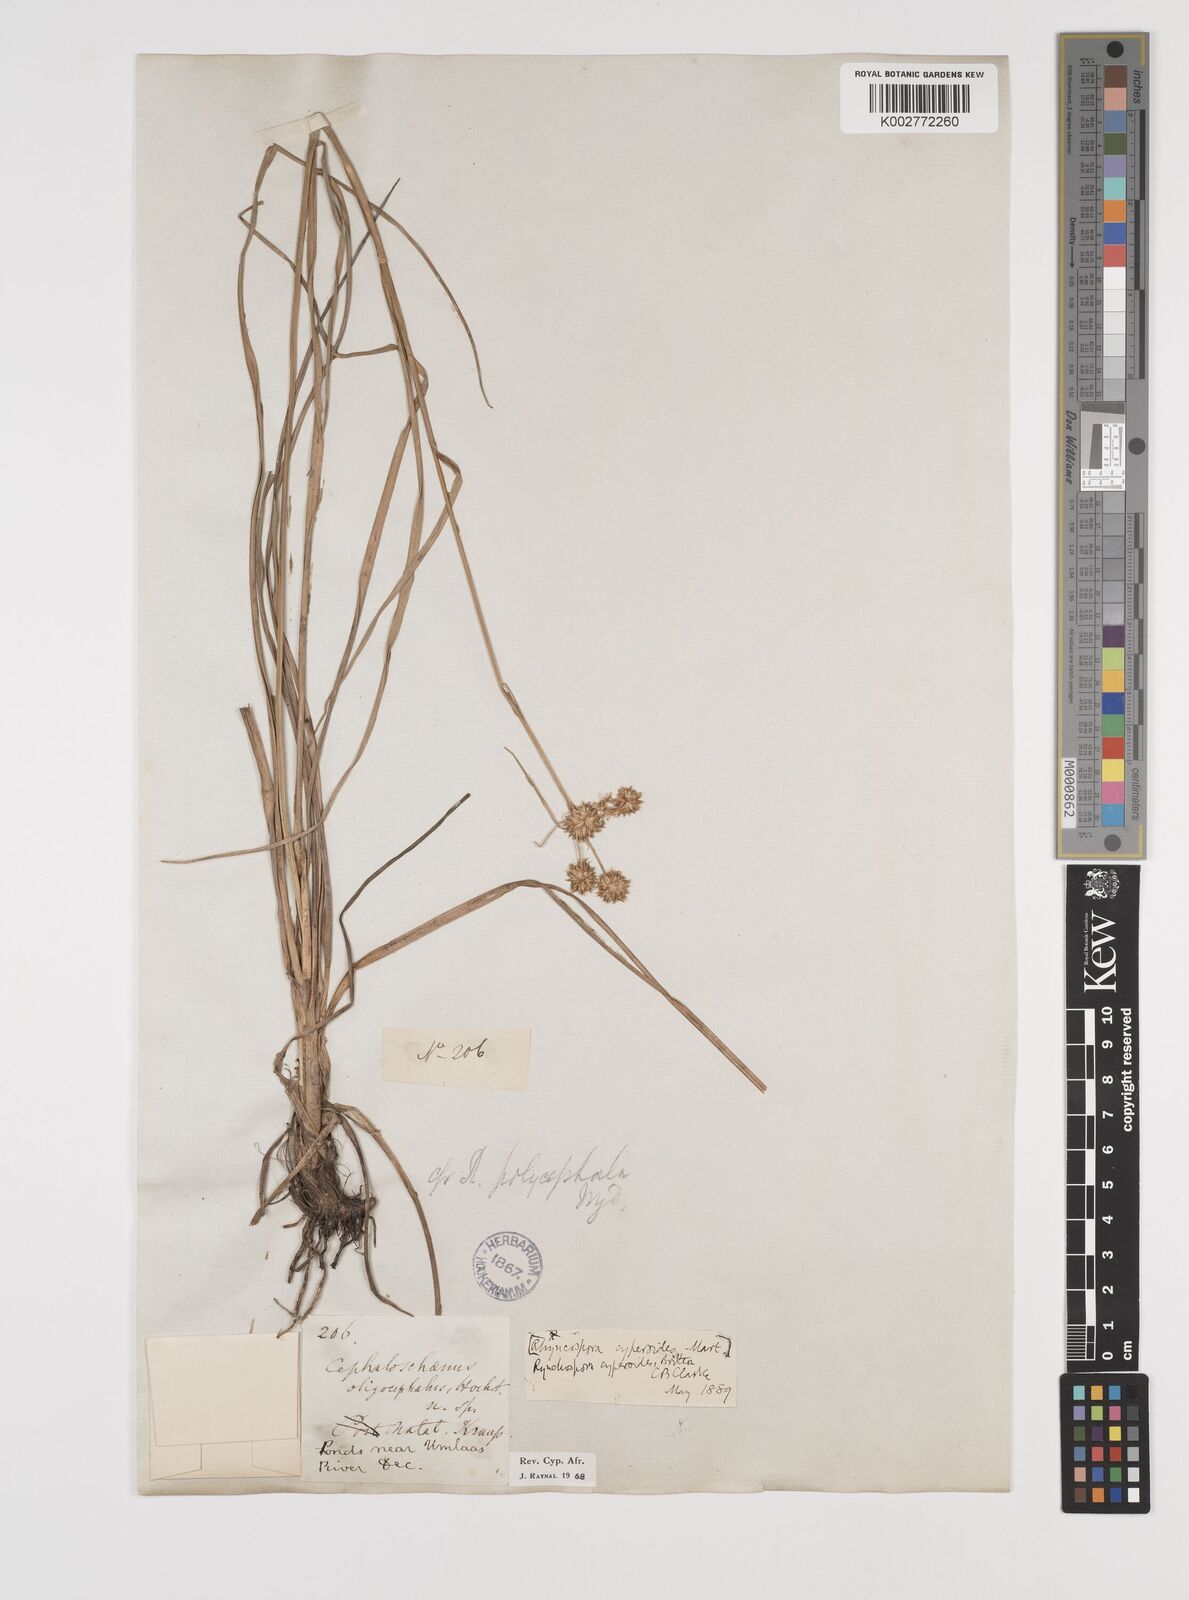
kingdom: Plantae
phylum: Tracheophyta
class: Liliopsida
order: Poales
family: Cyperaceae
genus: Rhynchospora
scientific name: Rhynchospora holoschoenoides
